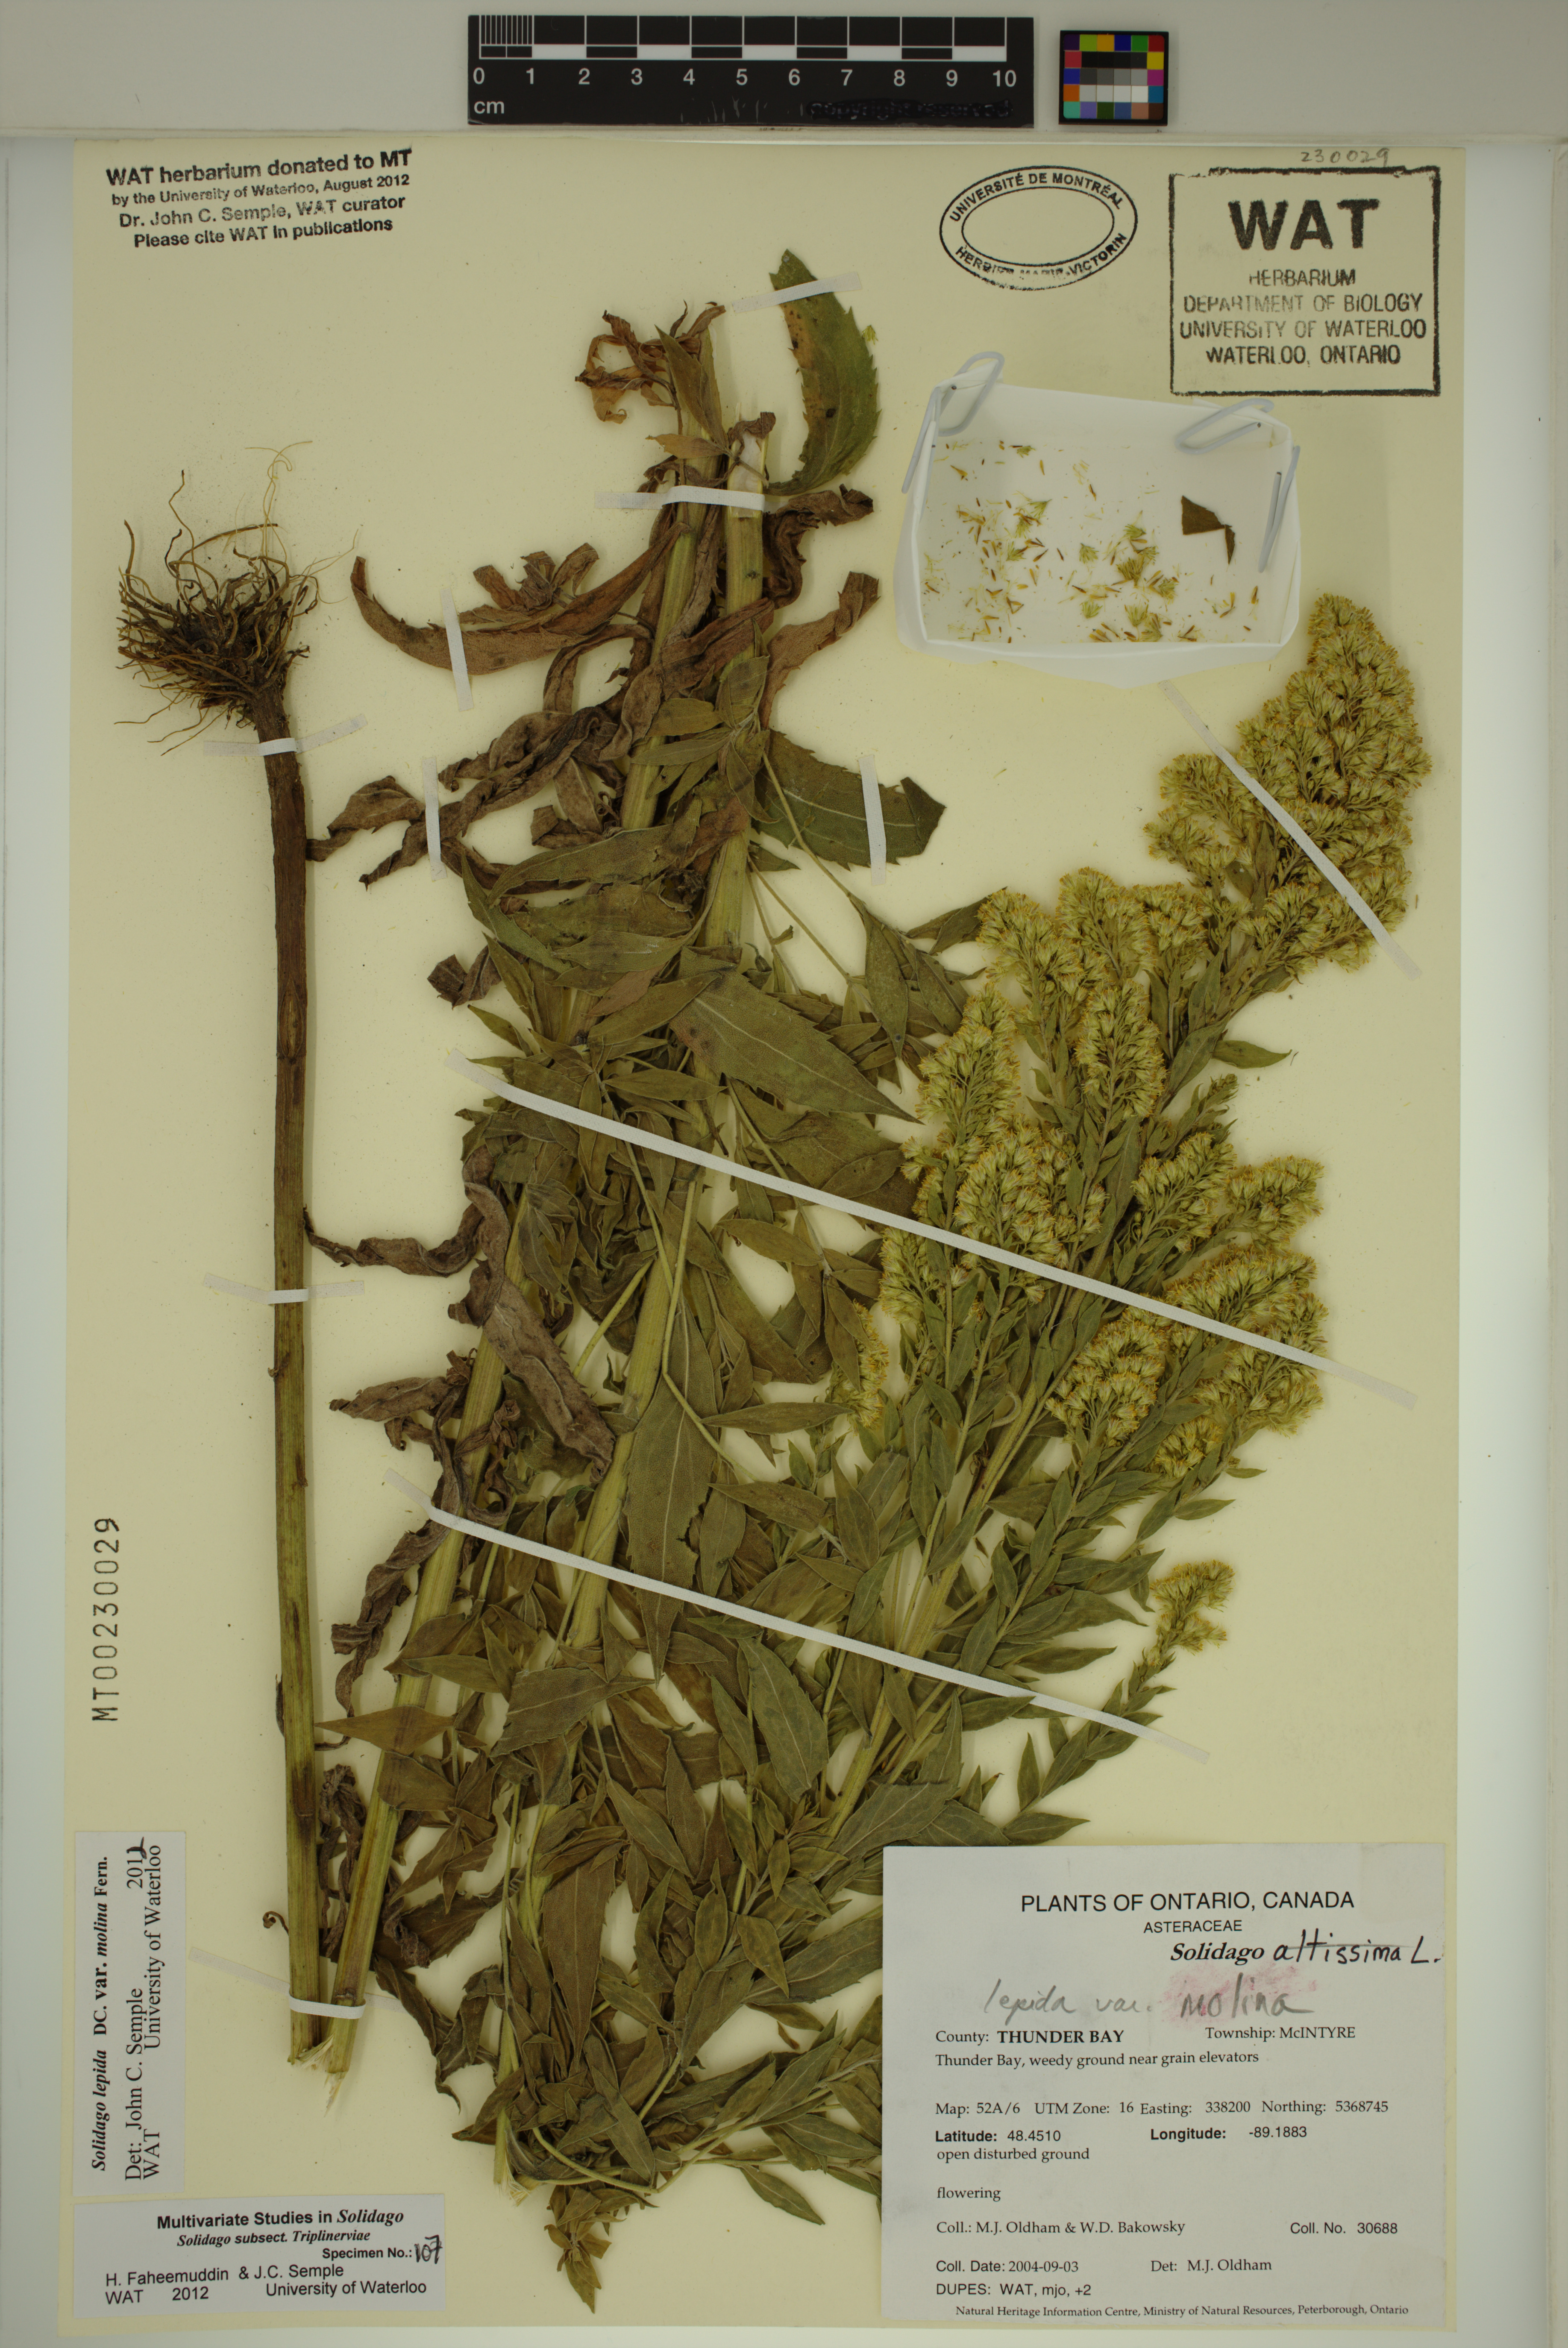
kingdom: Plantae
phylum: Tracheophyta
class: Magnoliopsida
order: Asterales
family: Asteraceae
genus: Solidago
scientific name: Solidago fallax
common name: Big-toothed canada goldenrod
